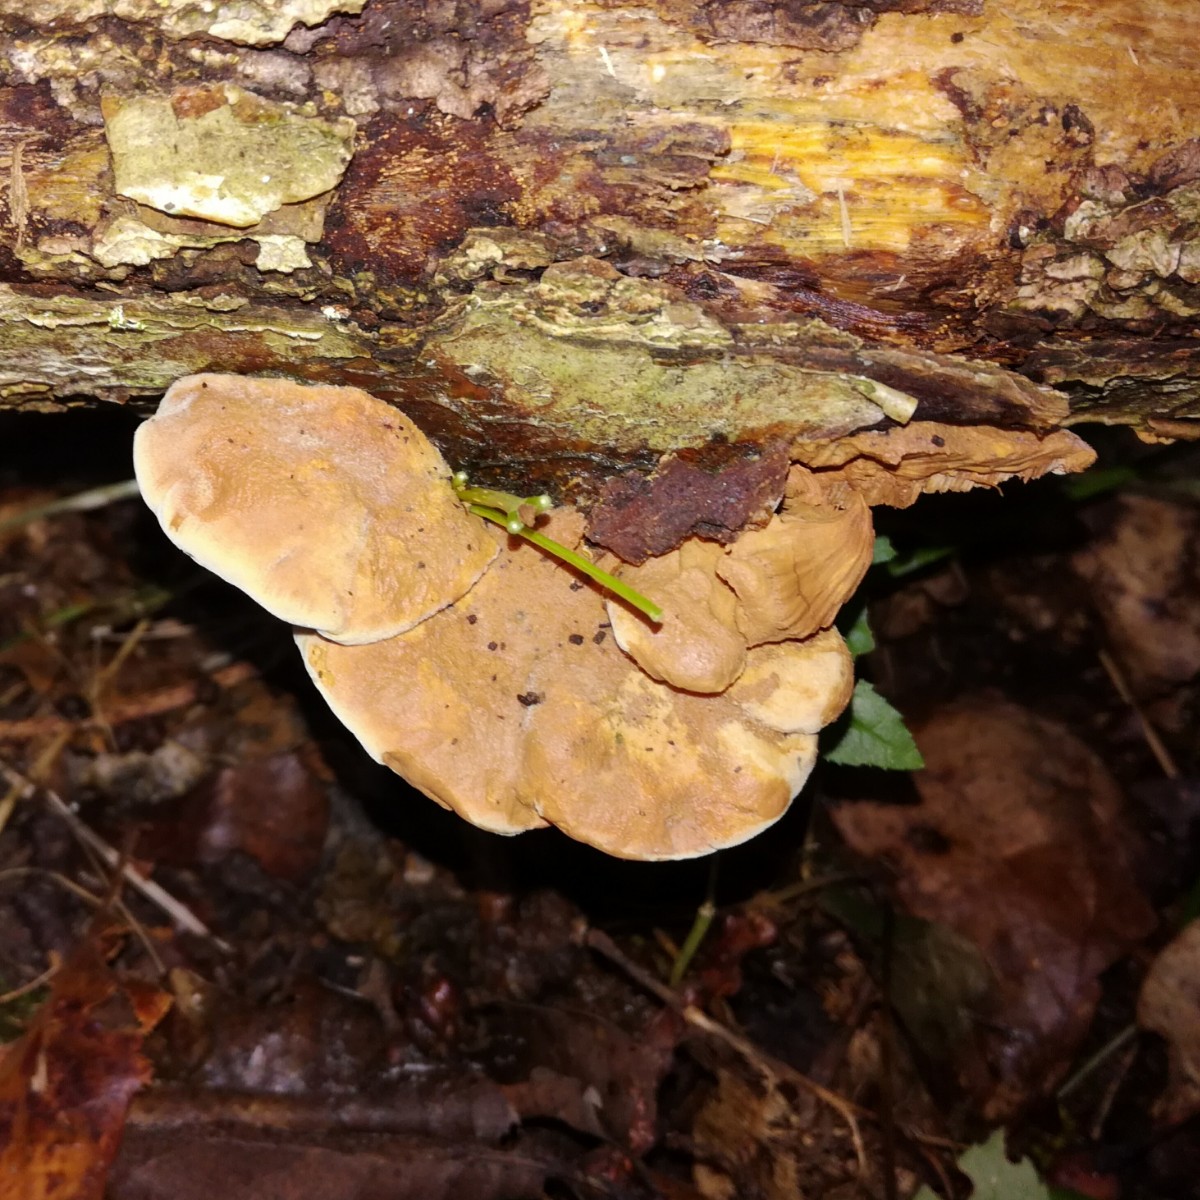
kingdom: Fungi
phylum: Basidiomycota
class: Agaricomycetes
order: Polyporales
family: Phanerochaetaceae
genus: Hapalopilus
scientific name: Hapalopilus rutilans
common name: rødlig okkerporesvamp
